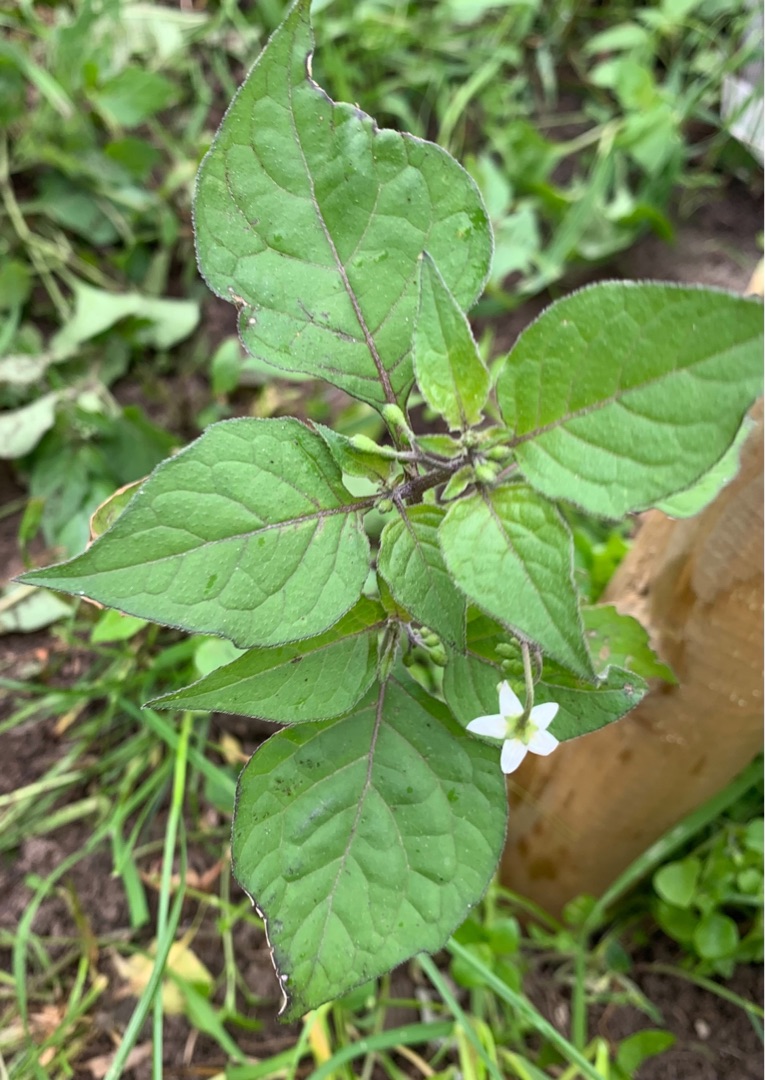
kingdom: Plantae
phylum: Tracheophyta
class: Magnoliopsida
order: Solanales
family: Solanaceae
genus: Solanum
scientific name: Solanum nigrum
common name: Sort natskygge
